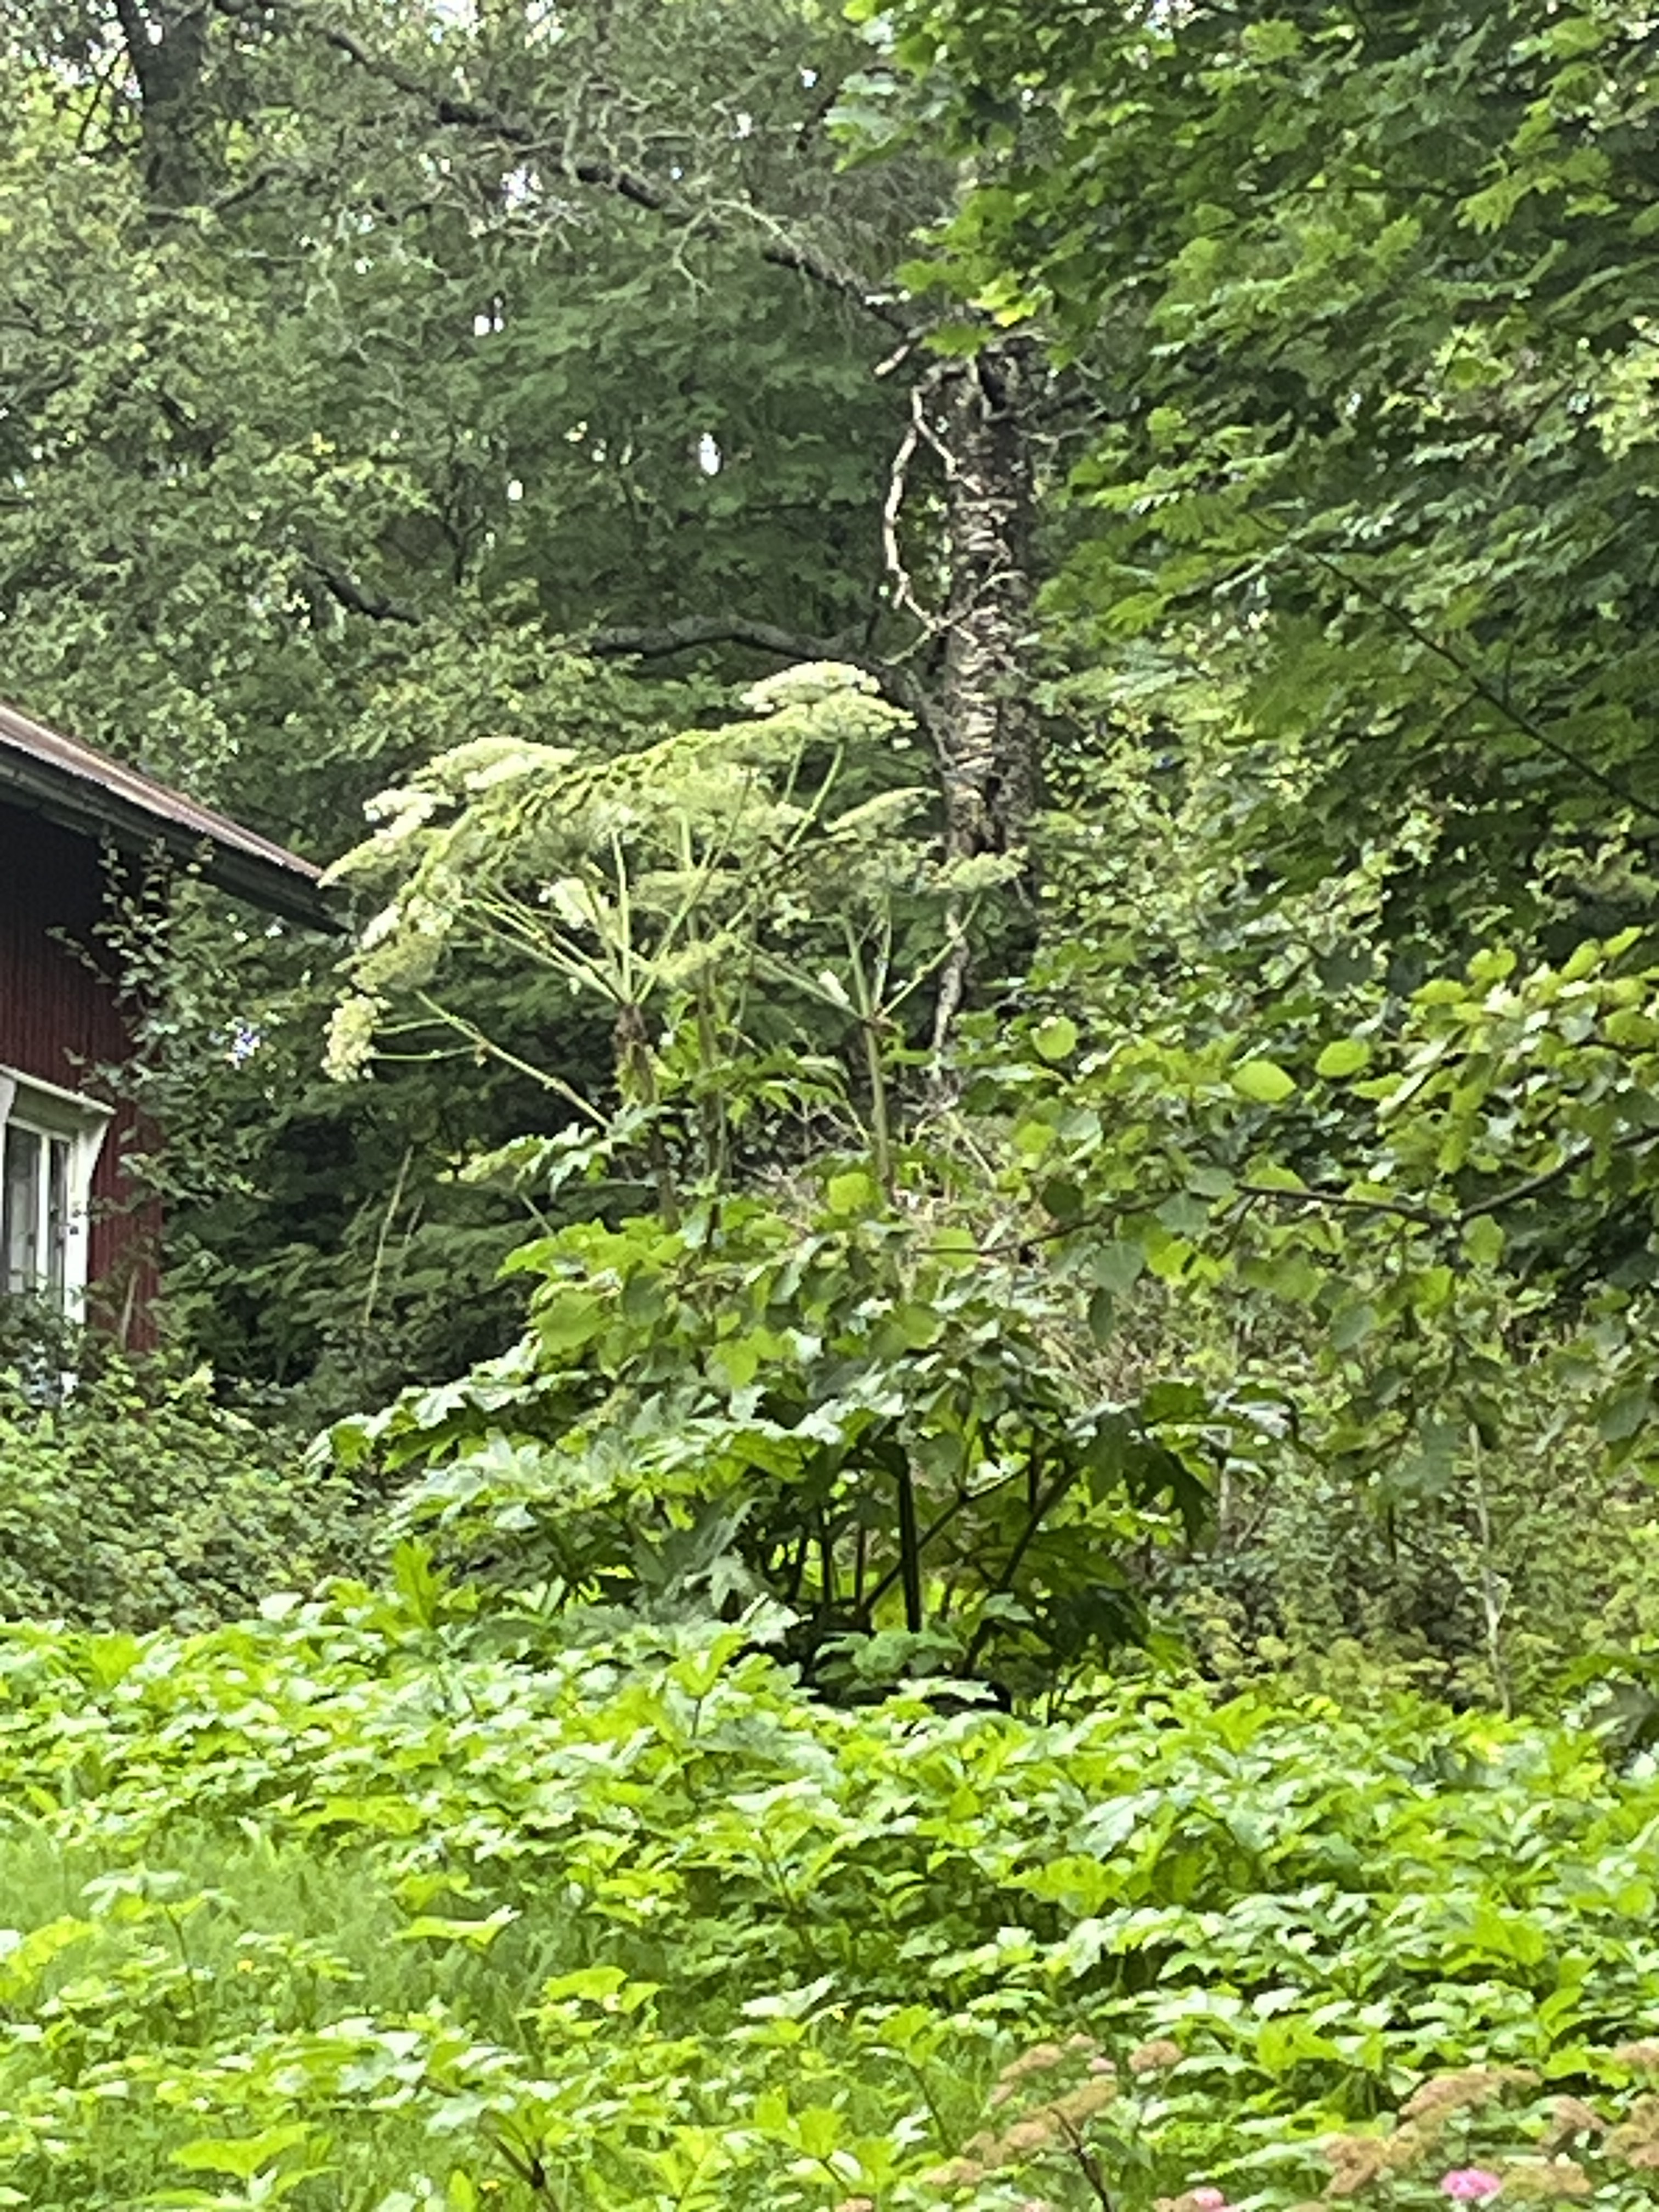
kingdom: Plantae
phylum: Tracheophyta
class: Magnoliopsida
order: Apiales
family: Apiaceae
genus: Heracleum
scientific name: Heracleum
